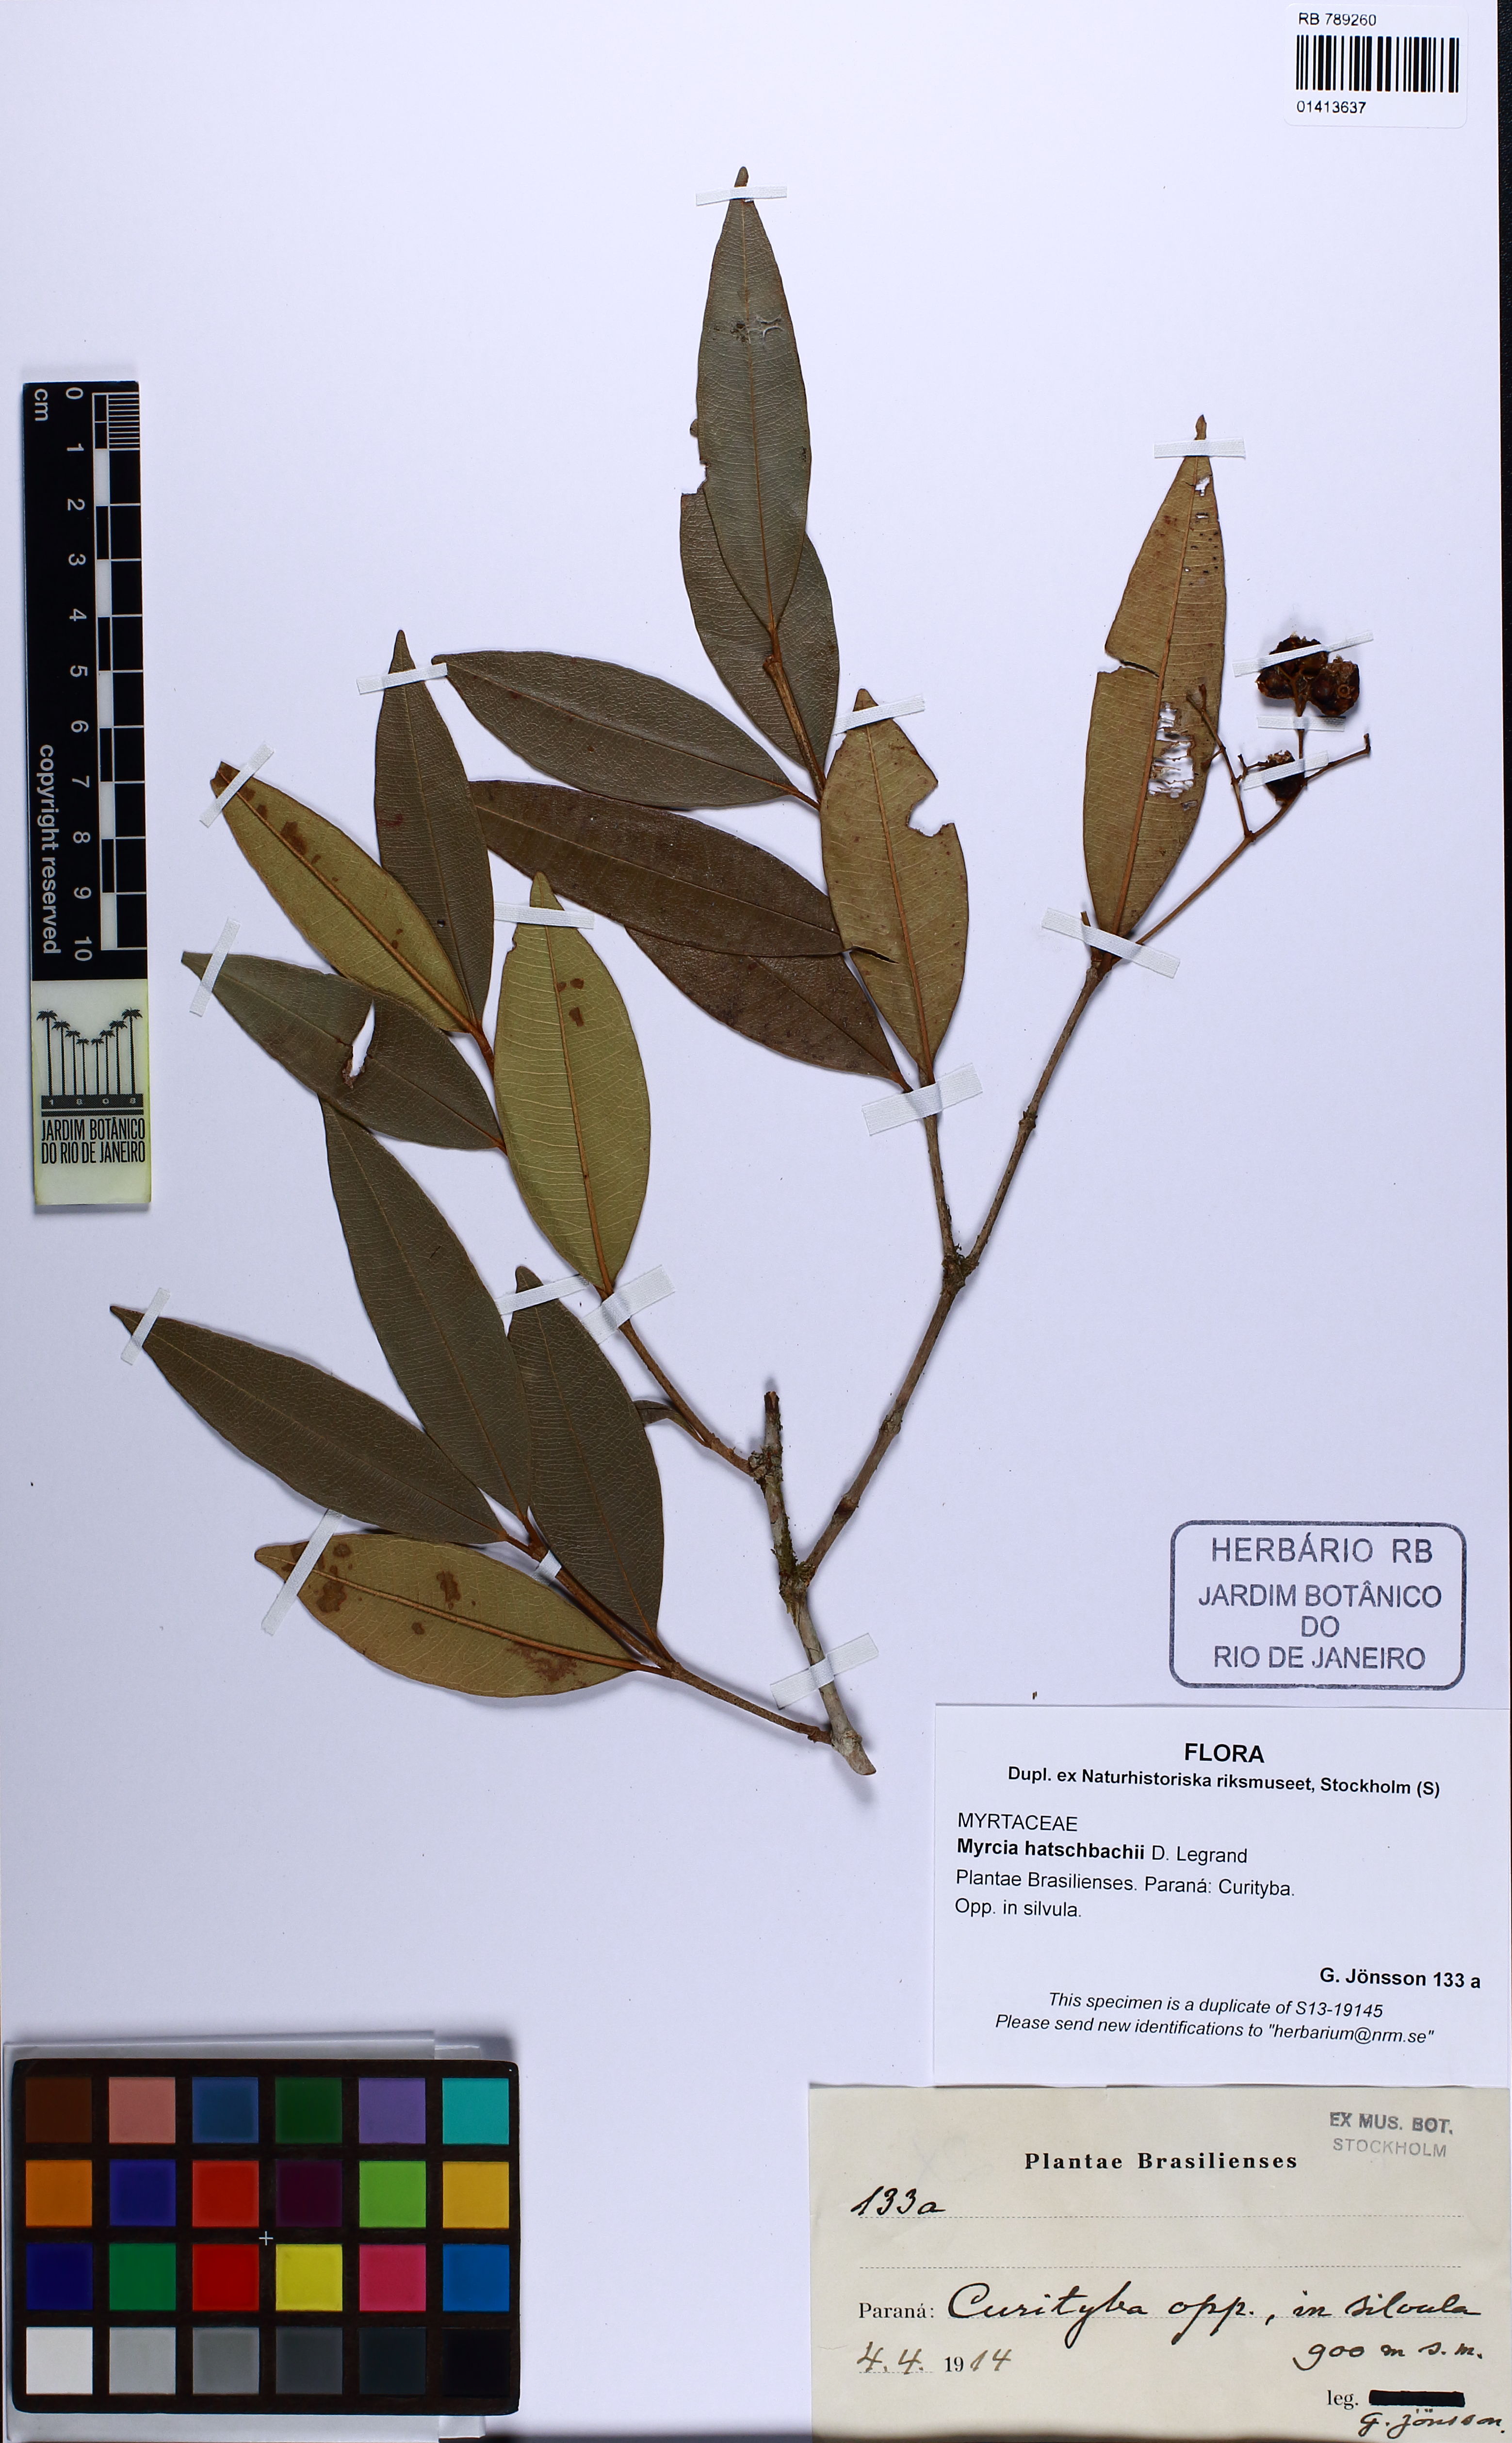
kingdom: Plantae
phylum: Tracheophyta
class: Magnoliopsida
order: Myrtales
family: Myrtaceae
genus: Myrcia
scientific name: Myrcia hatschbachii
